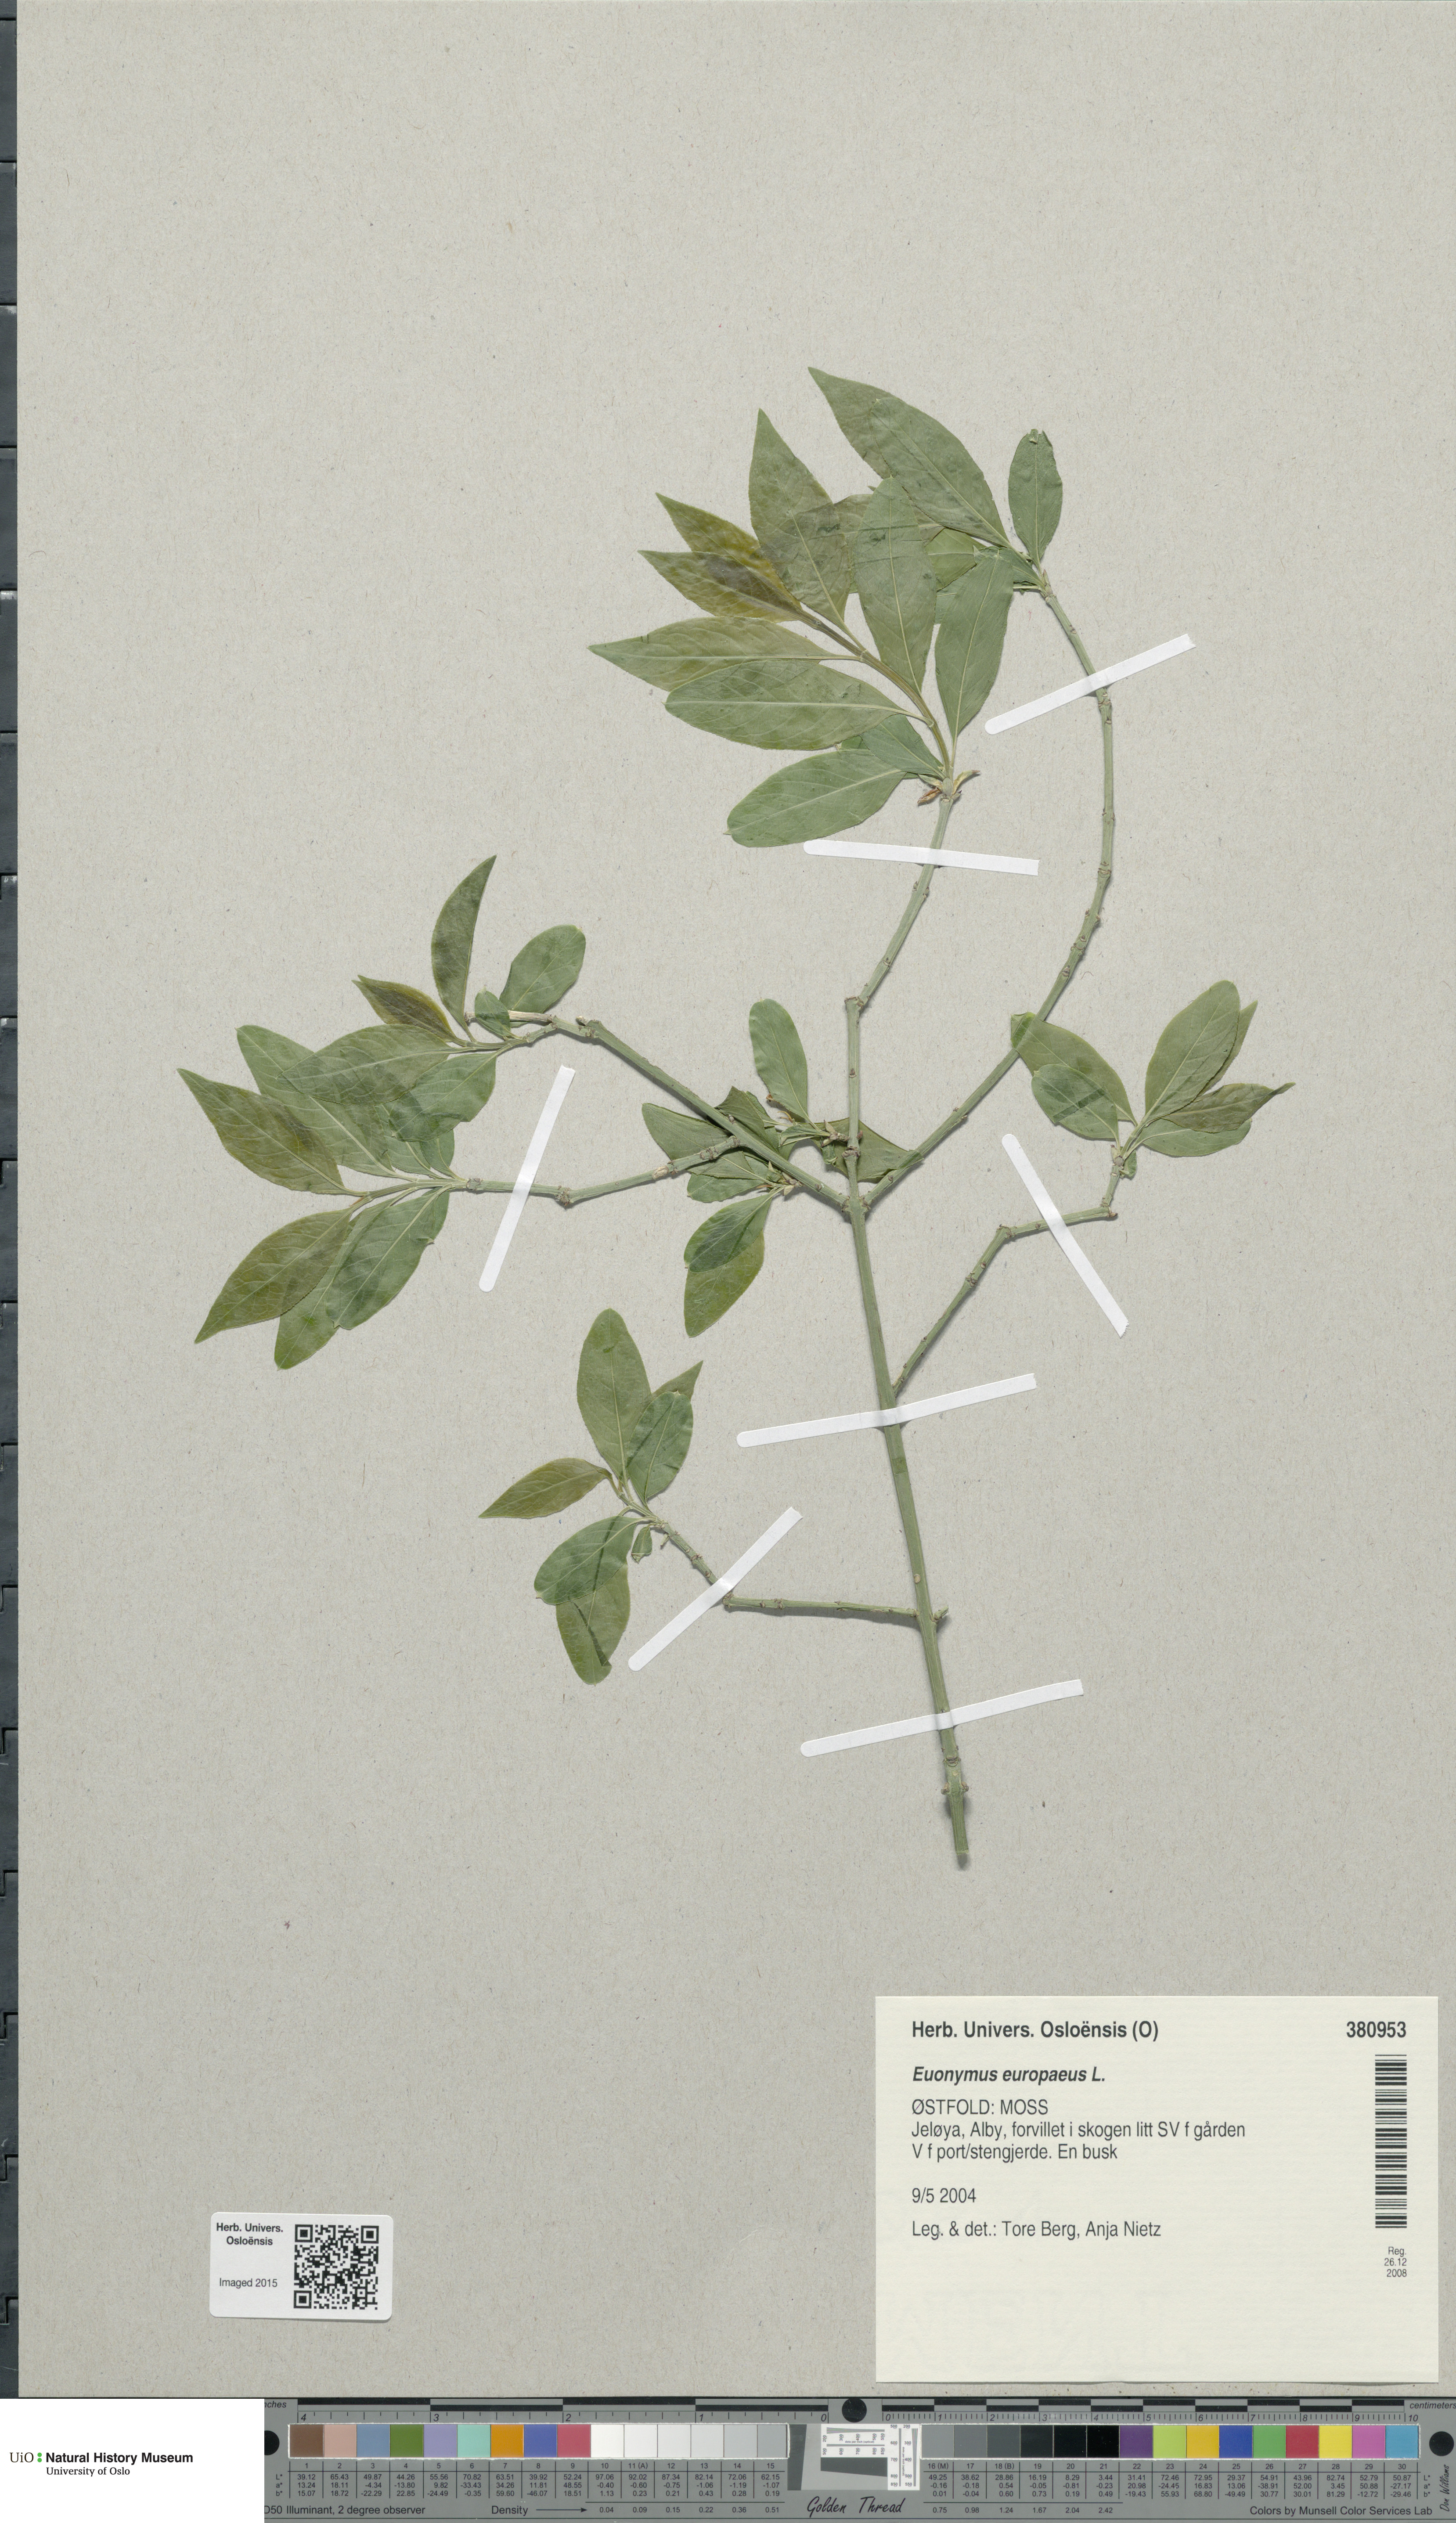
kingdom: Plantae
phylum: Tracheophyta
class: Magnoliopsida
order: Celastrales
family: Celastraceae
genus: Euonymus
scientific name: Euonymus europaeus
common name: Spindle
